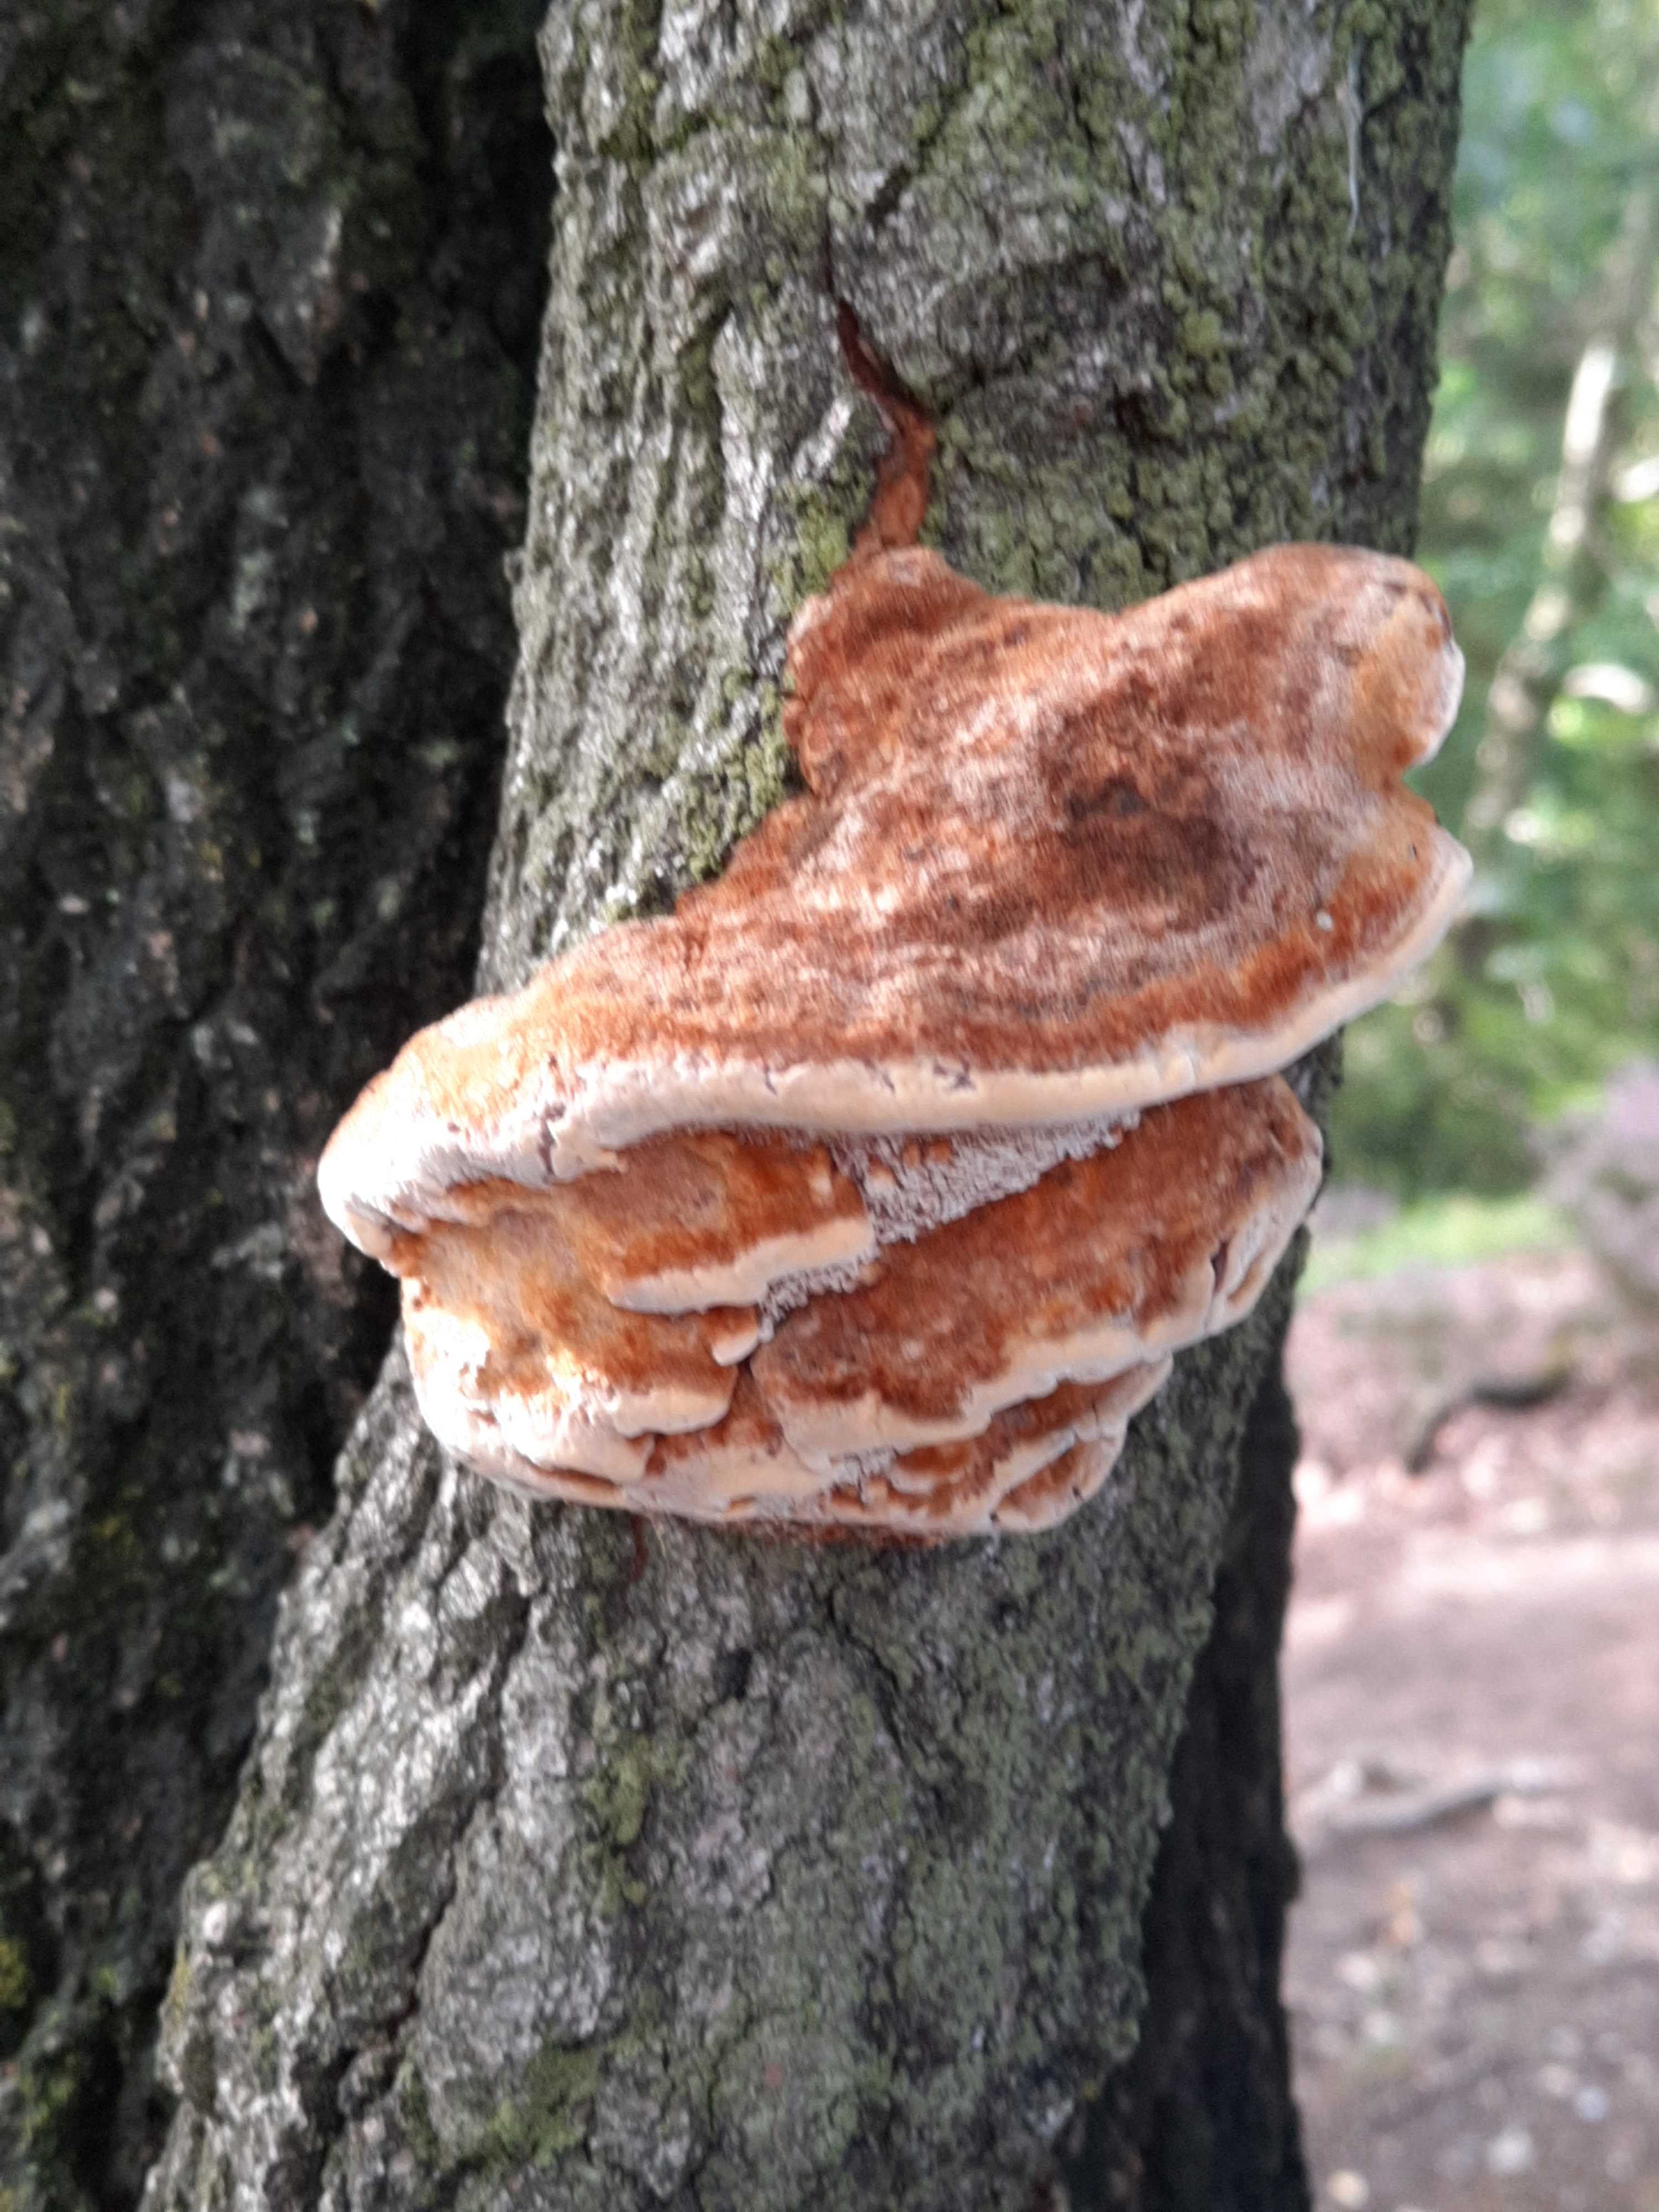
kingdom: Fungi
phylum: Basidiomycota
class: Agaricomycetes
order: Hymenochaetales
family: Hymenochaetaceae
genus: Inocutis
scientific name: Inocutis rheades
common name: ræve-spejlporesvamp
